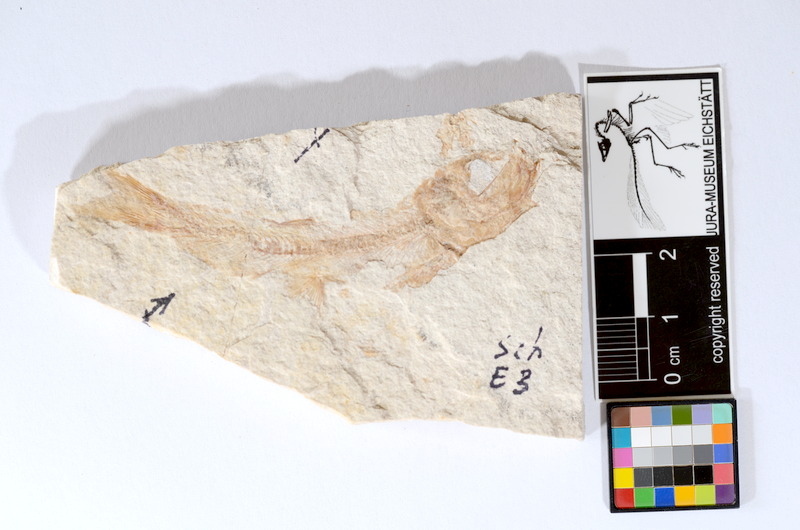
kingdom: Animalia
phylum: Chordata
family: Ascalaboidae
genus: Tharsis
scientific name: Tharsis dubius
